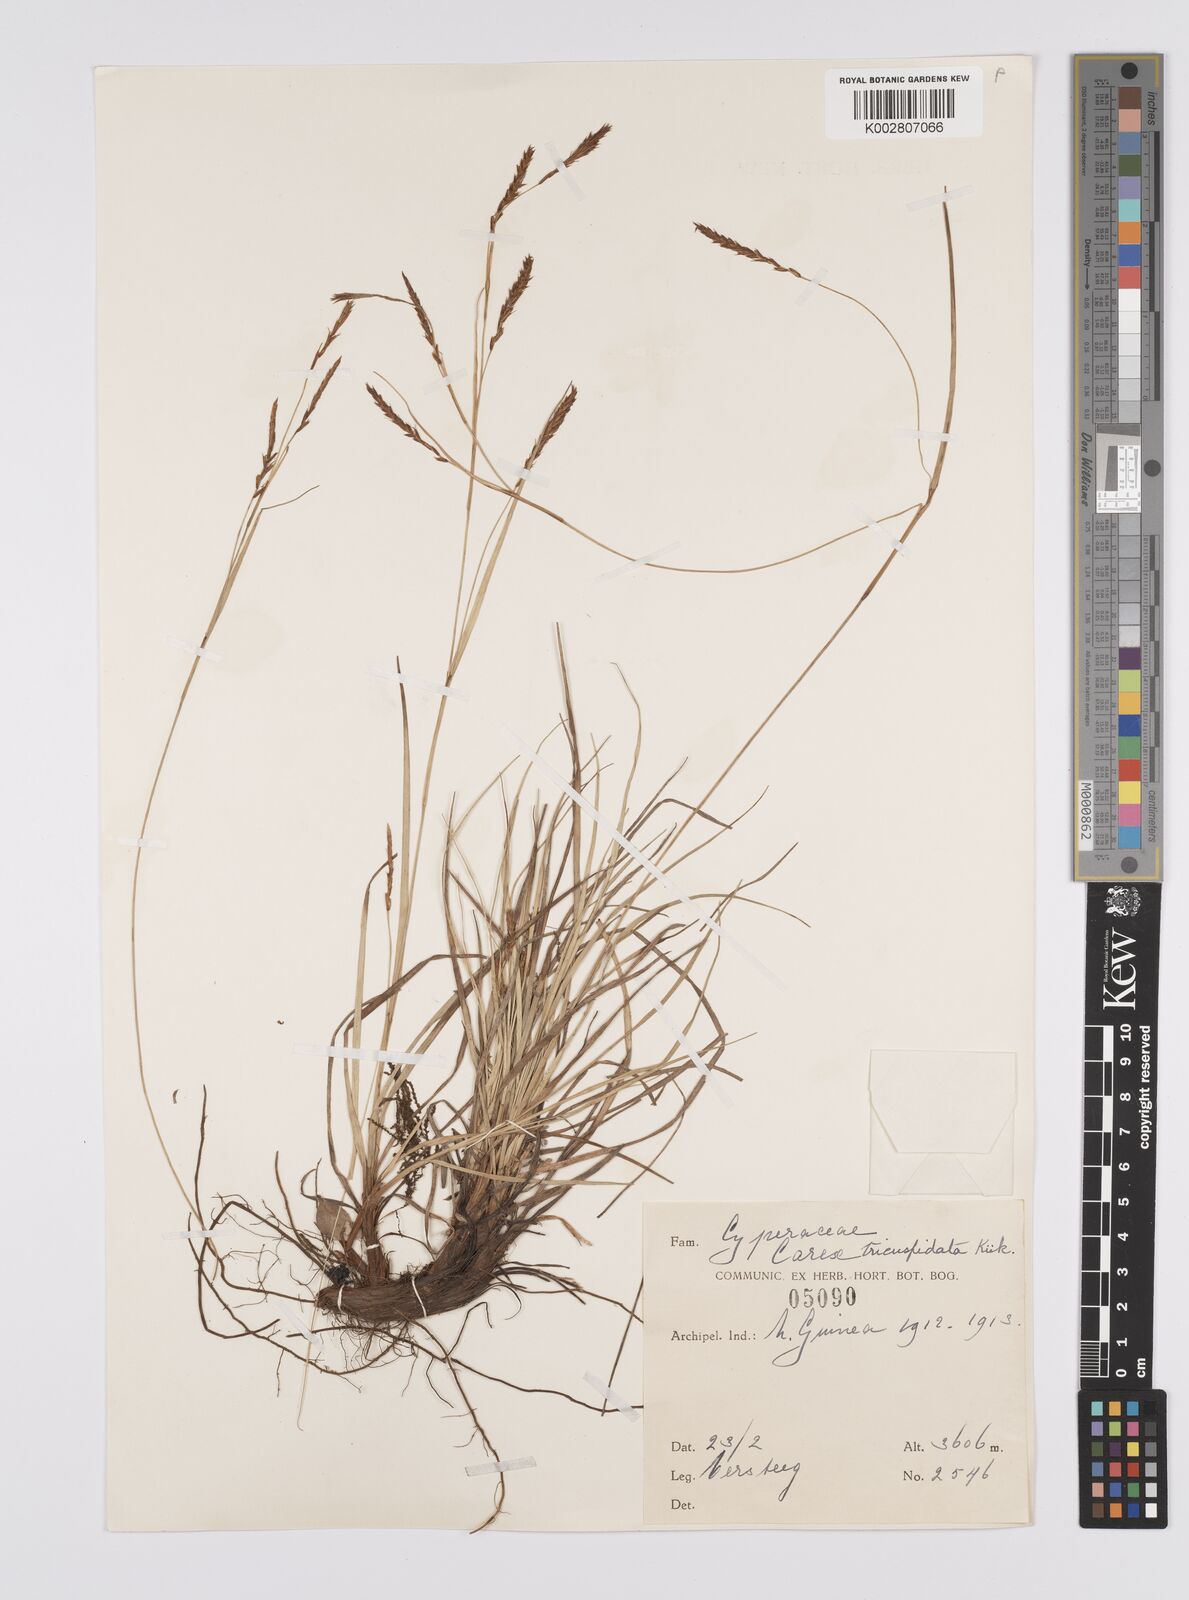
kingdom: Plantae
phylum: Tracheophyta
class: Liliopsida
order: Poales
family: Cyperaceae
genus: Carex
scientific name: Carex brachyanthera
